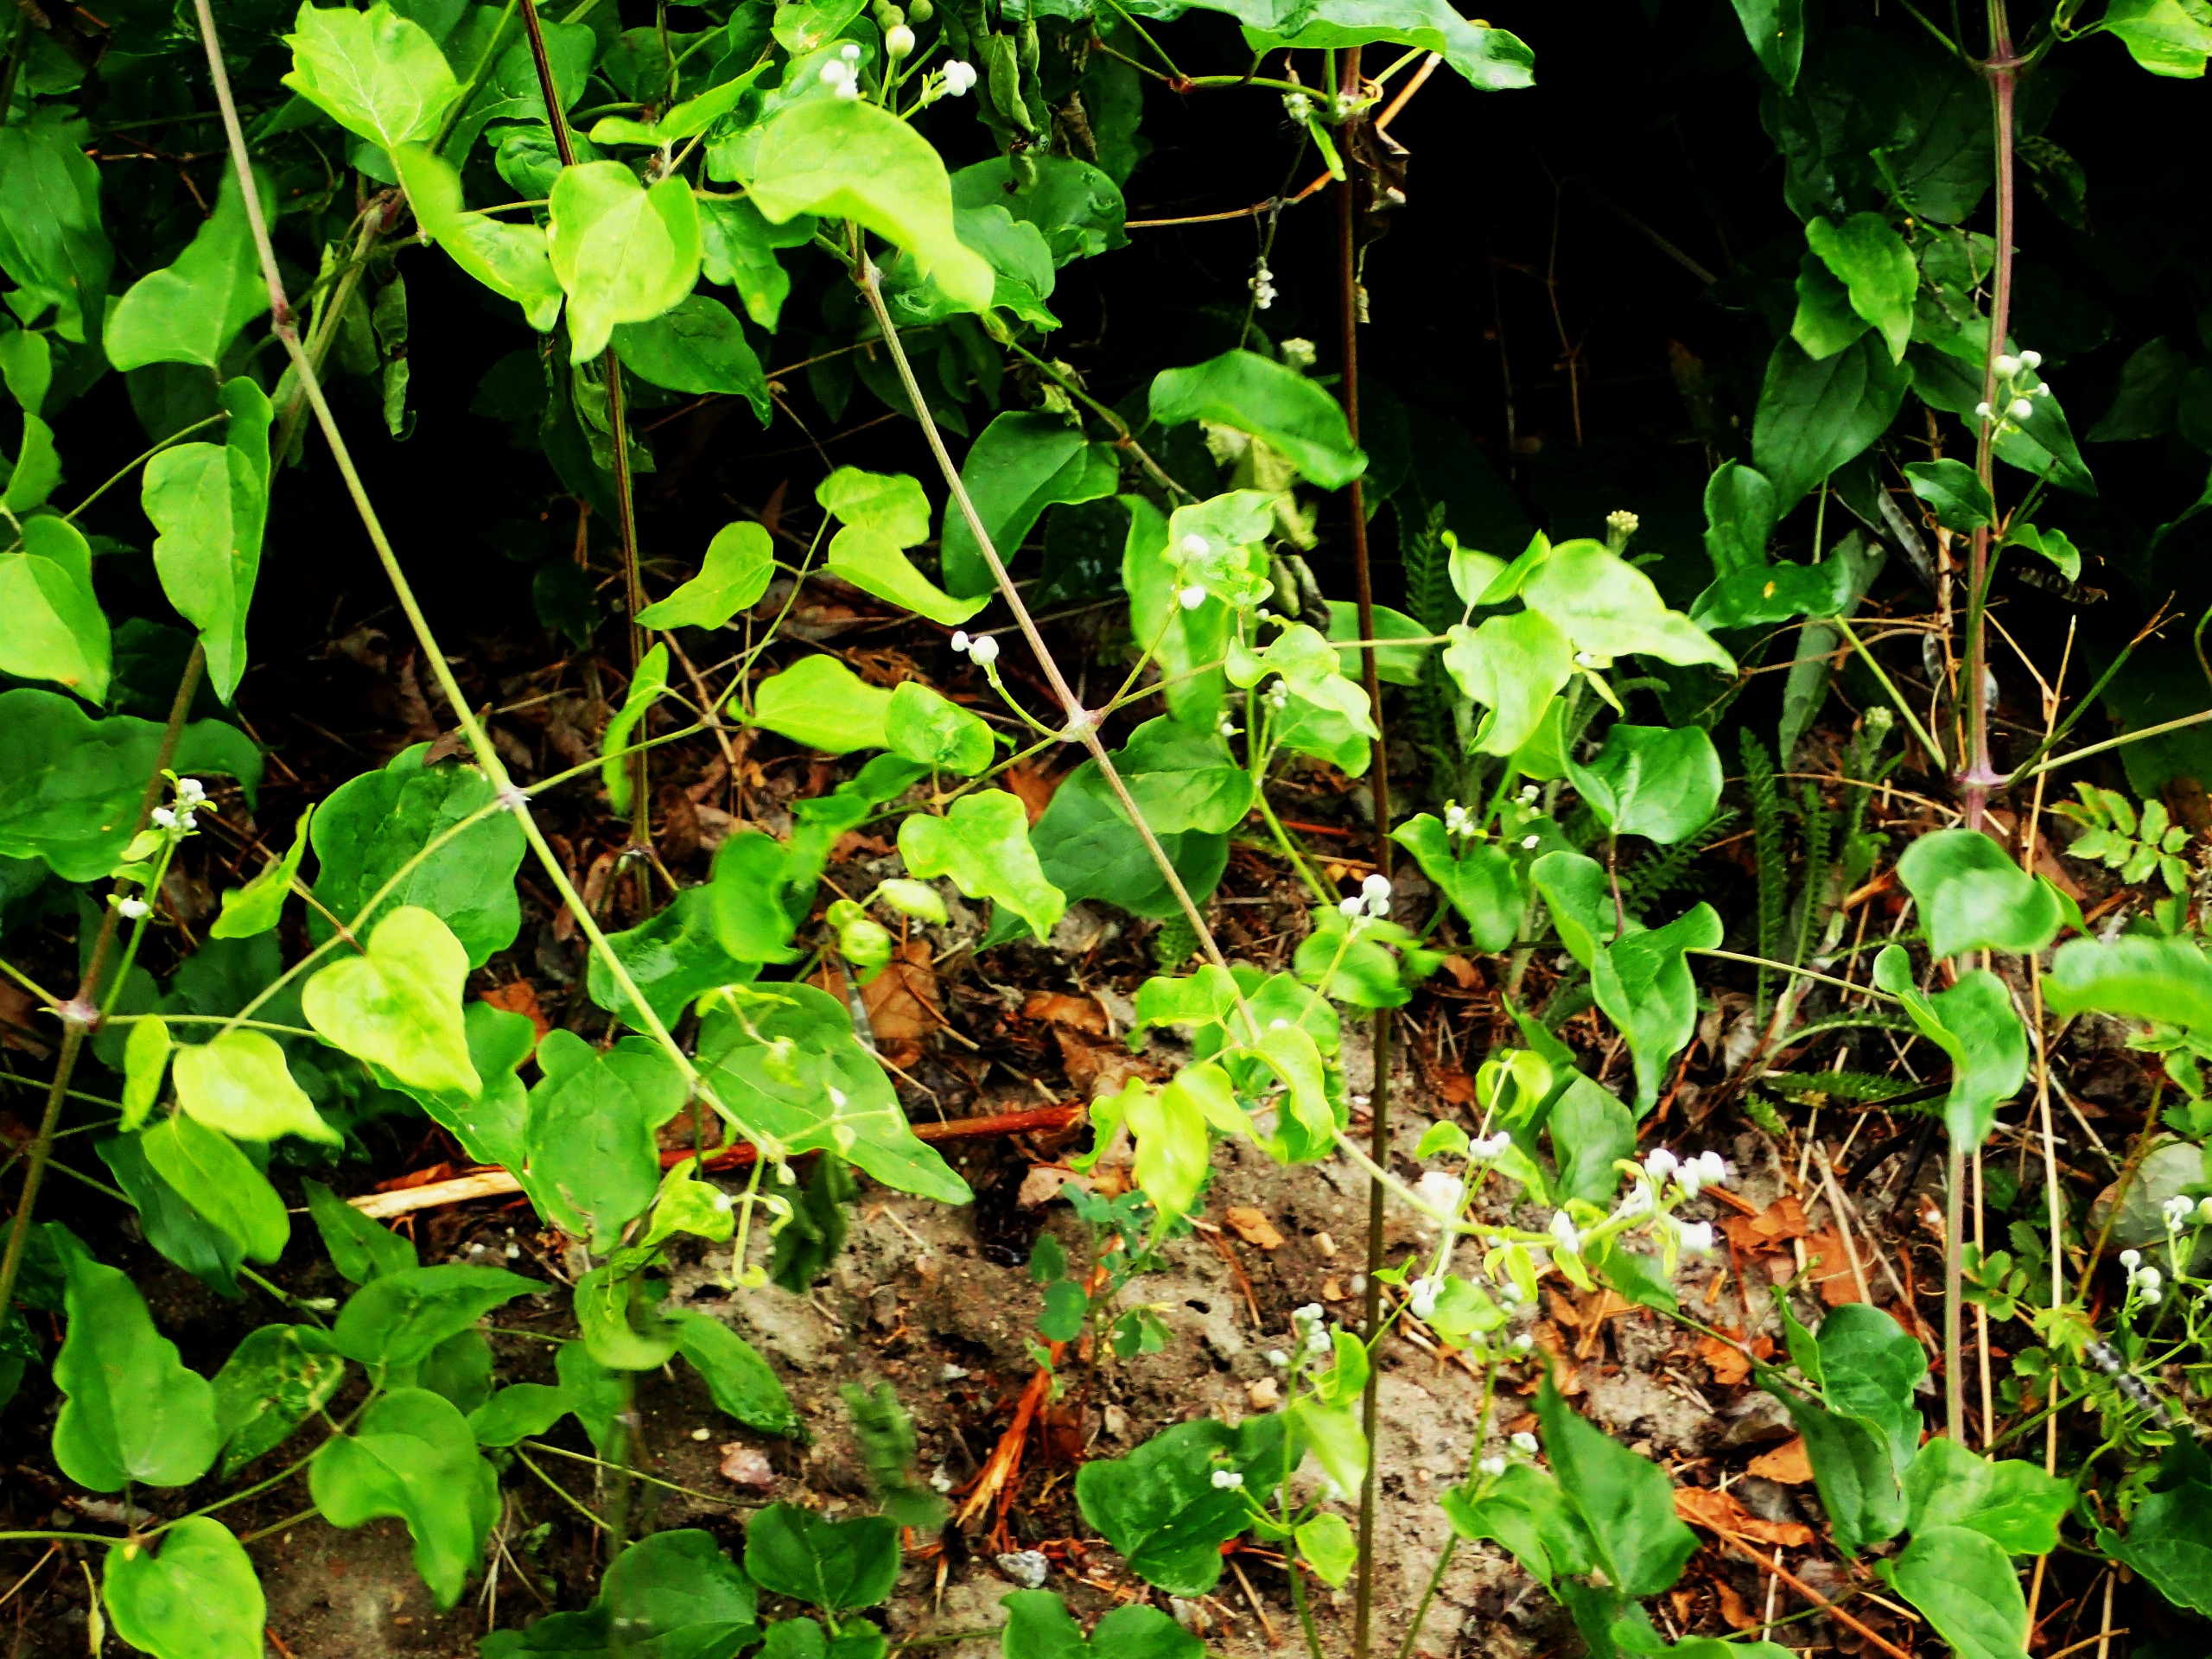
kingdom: Plantae
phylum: Tracheophyta
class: Magnoliopsida
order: Ranunculales
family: Ranunculaceae
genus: Clematis
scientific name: Clematis vitalba
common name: Skovranke
